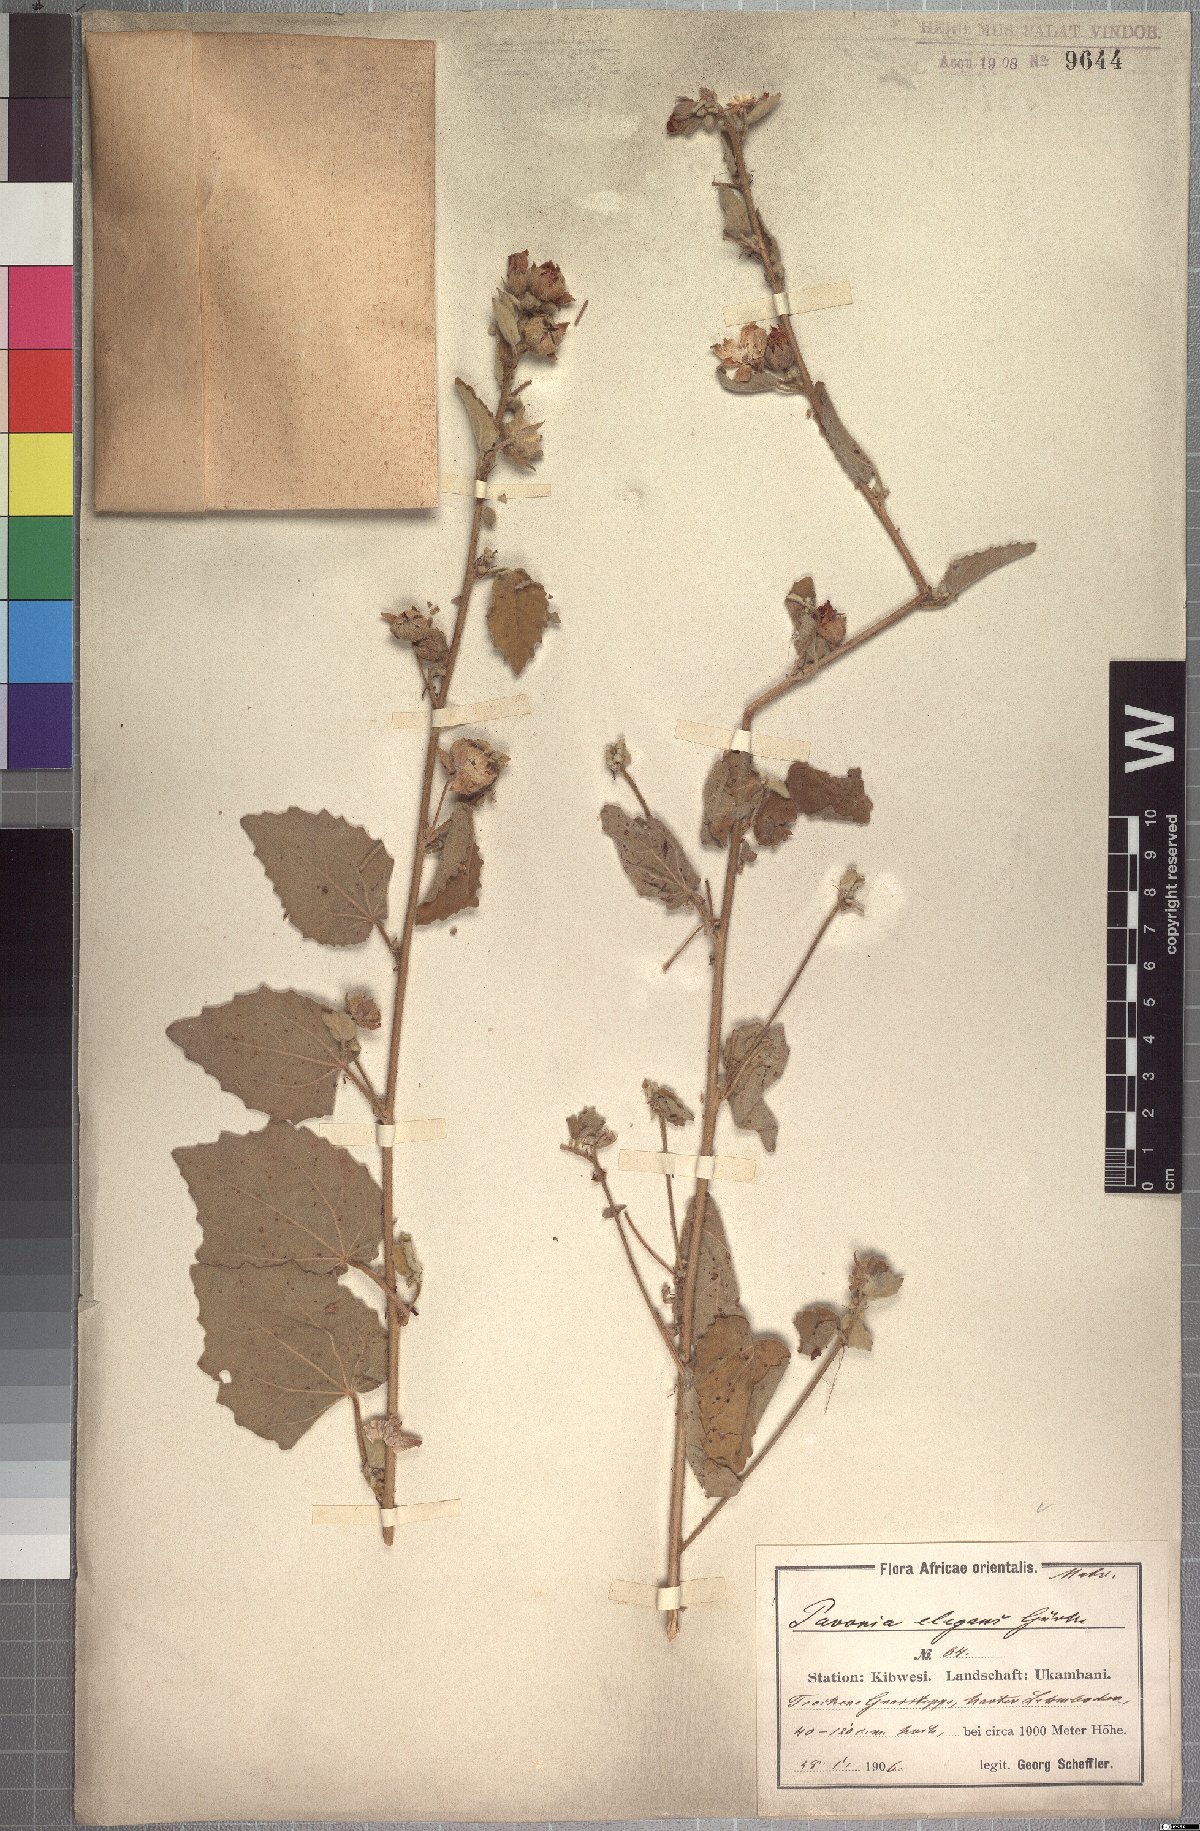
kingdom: Plantae
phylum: Tracheophyta
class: Magnoliopsida
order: Malvales
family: Malvaceae
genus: Pavonia
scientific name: Pavonia elegans
